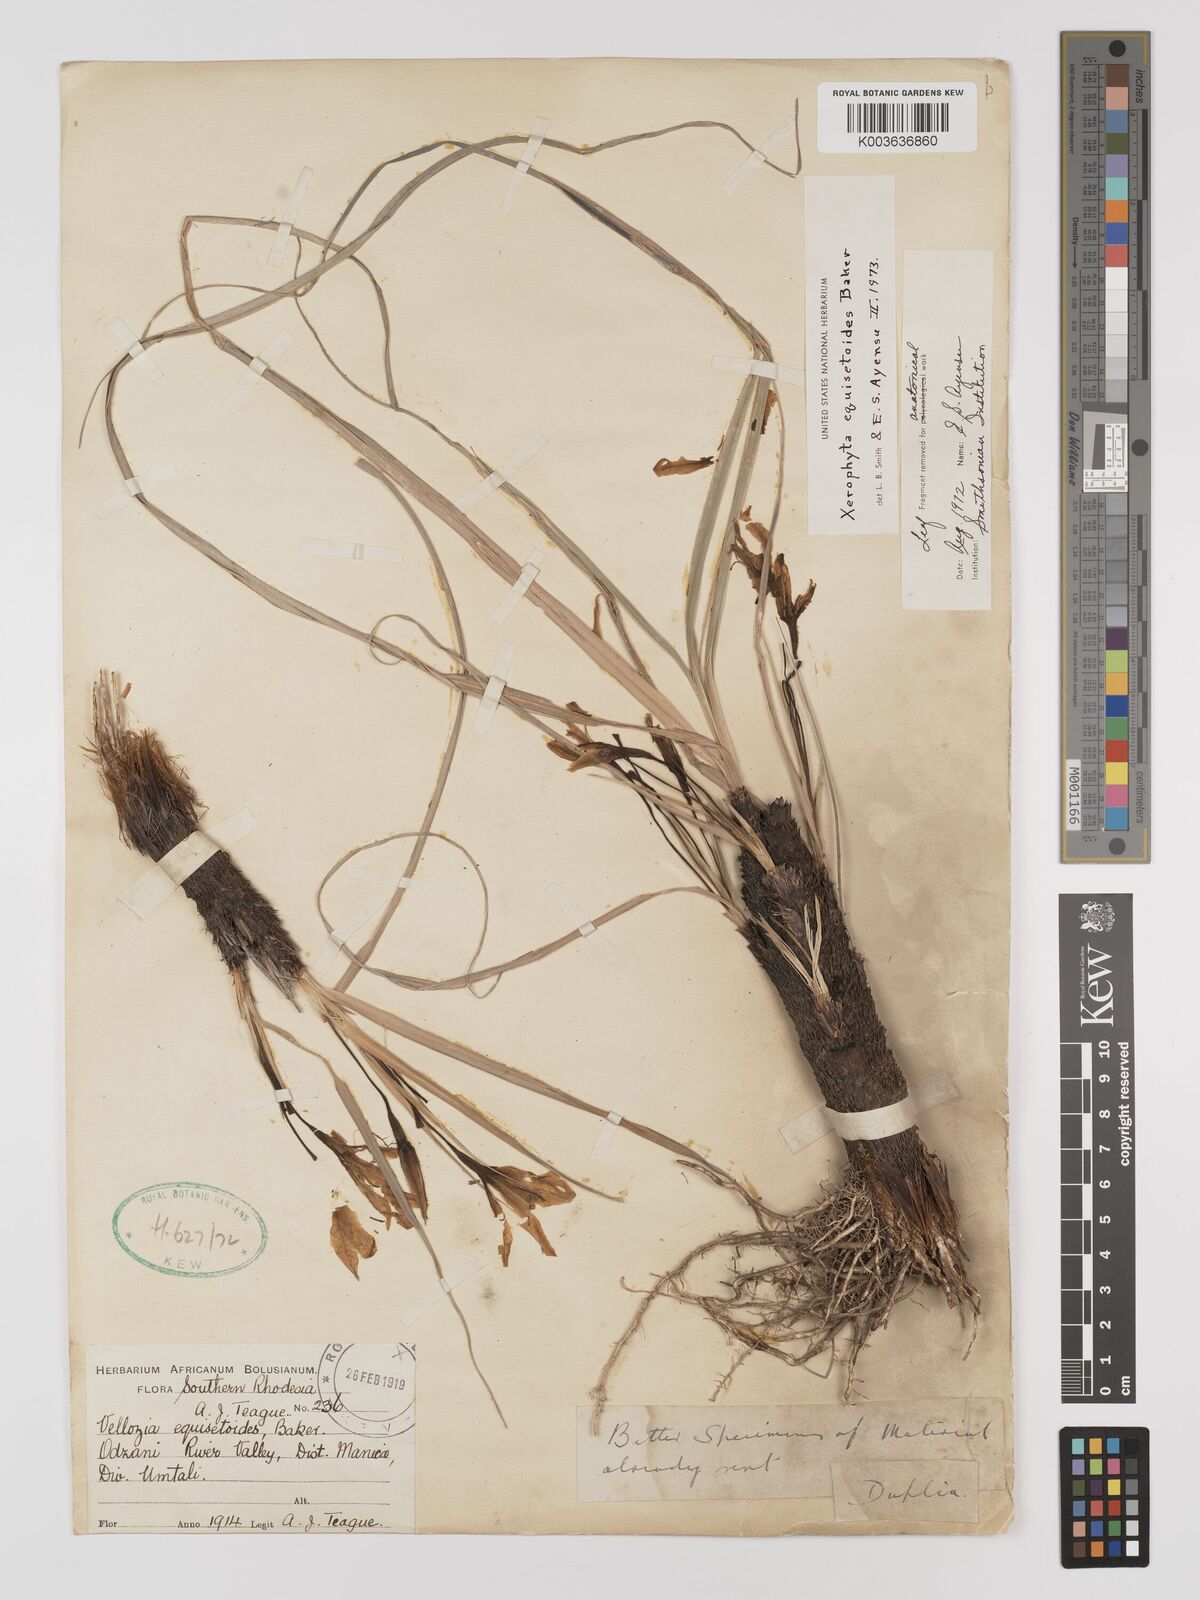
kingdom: Plantae
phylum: Tracheophyta
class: Liliopsida
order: Pandanales
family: Velloziaceae
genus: Xerophyta
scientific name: Xerophyta equisetoides
